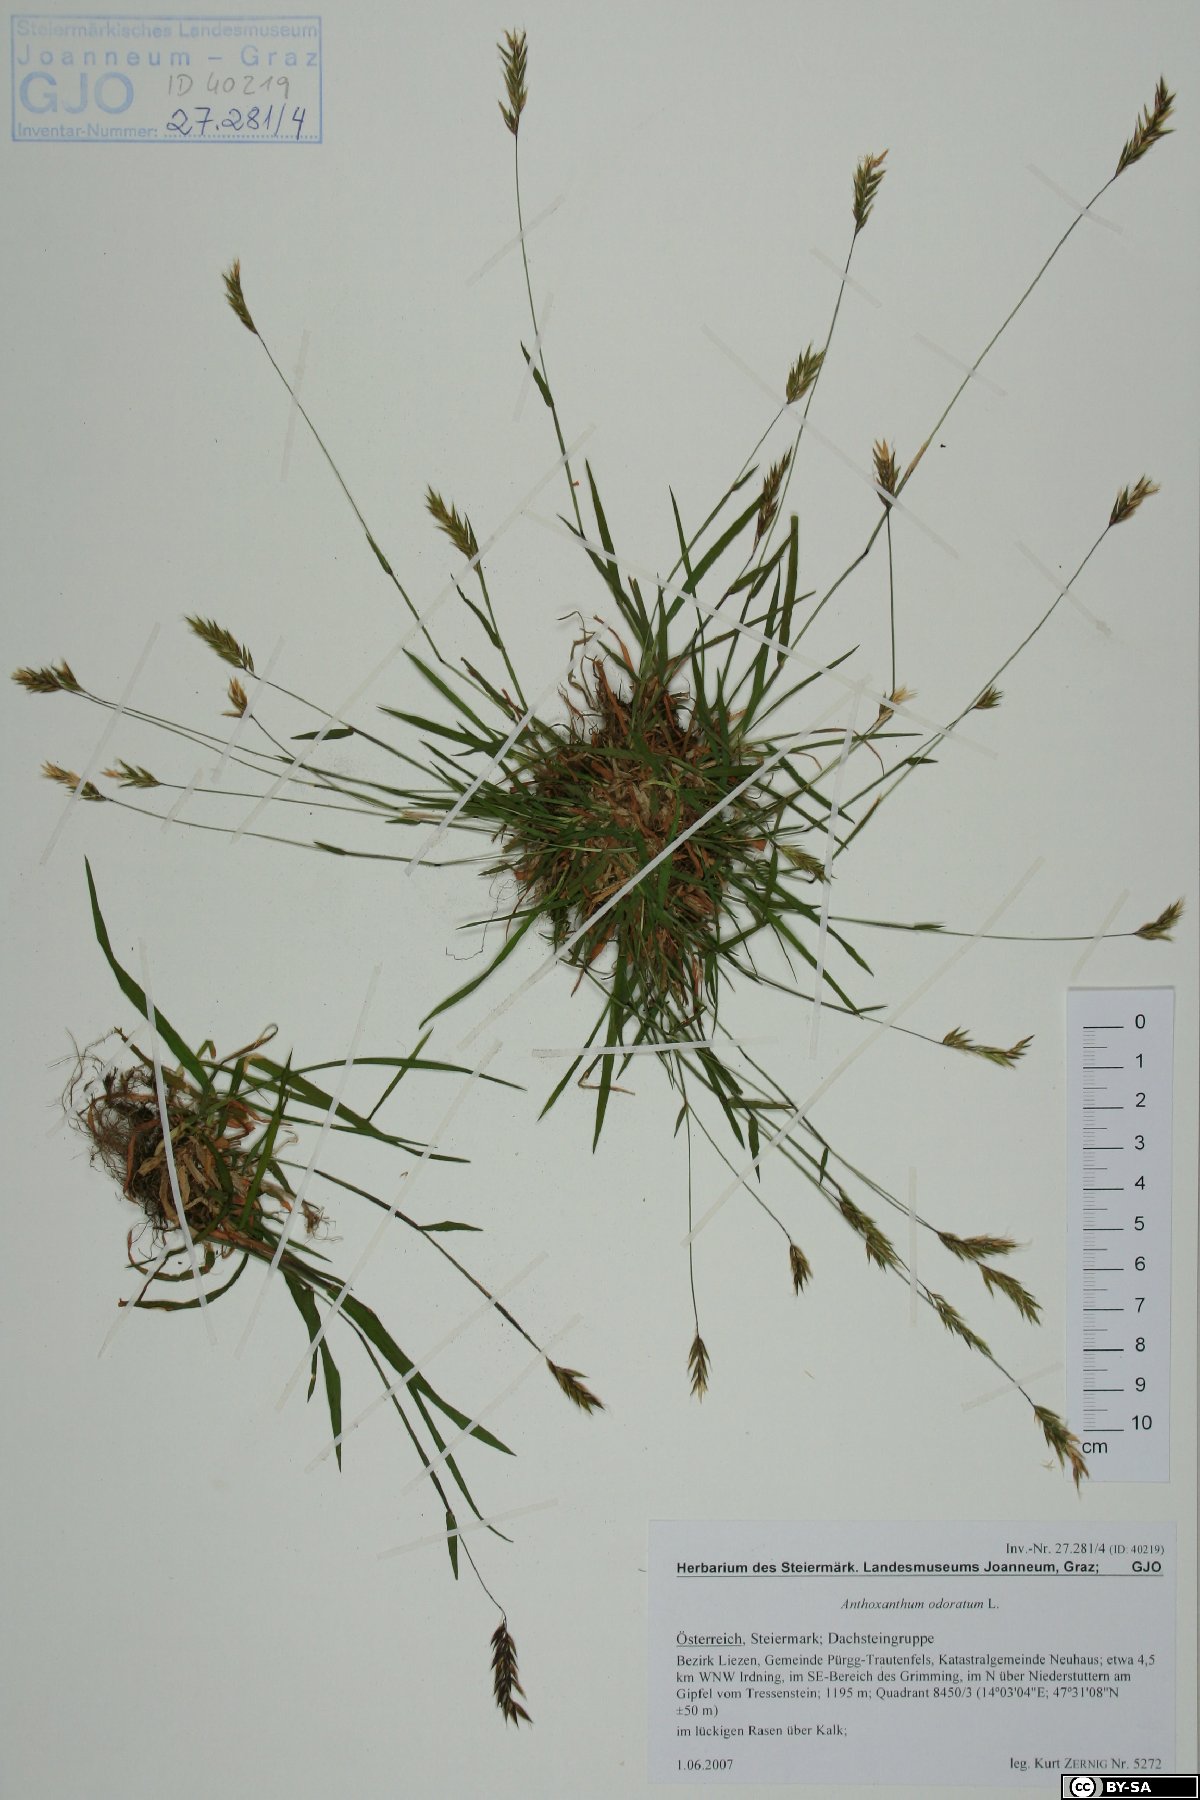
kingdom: Plantae
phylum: Tracheophyta
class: Liliopsida
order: Poales
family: Poaceae
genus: Anthoxanthum
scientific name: Anthoxanthum odoratum
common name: Sweet vernalgrass
